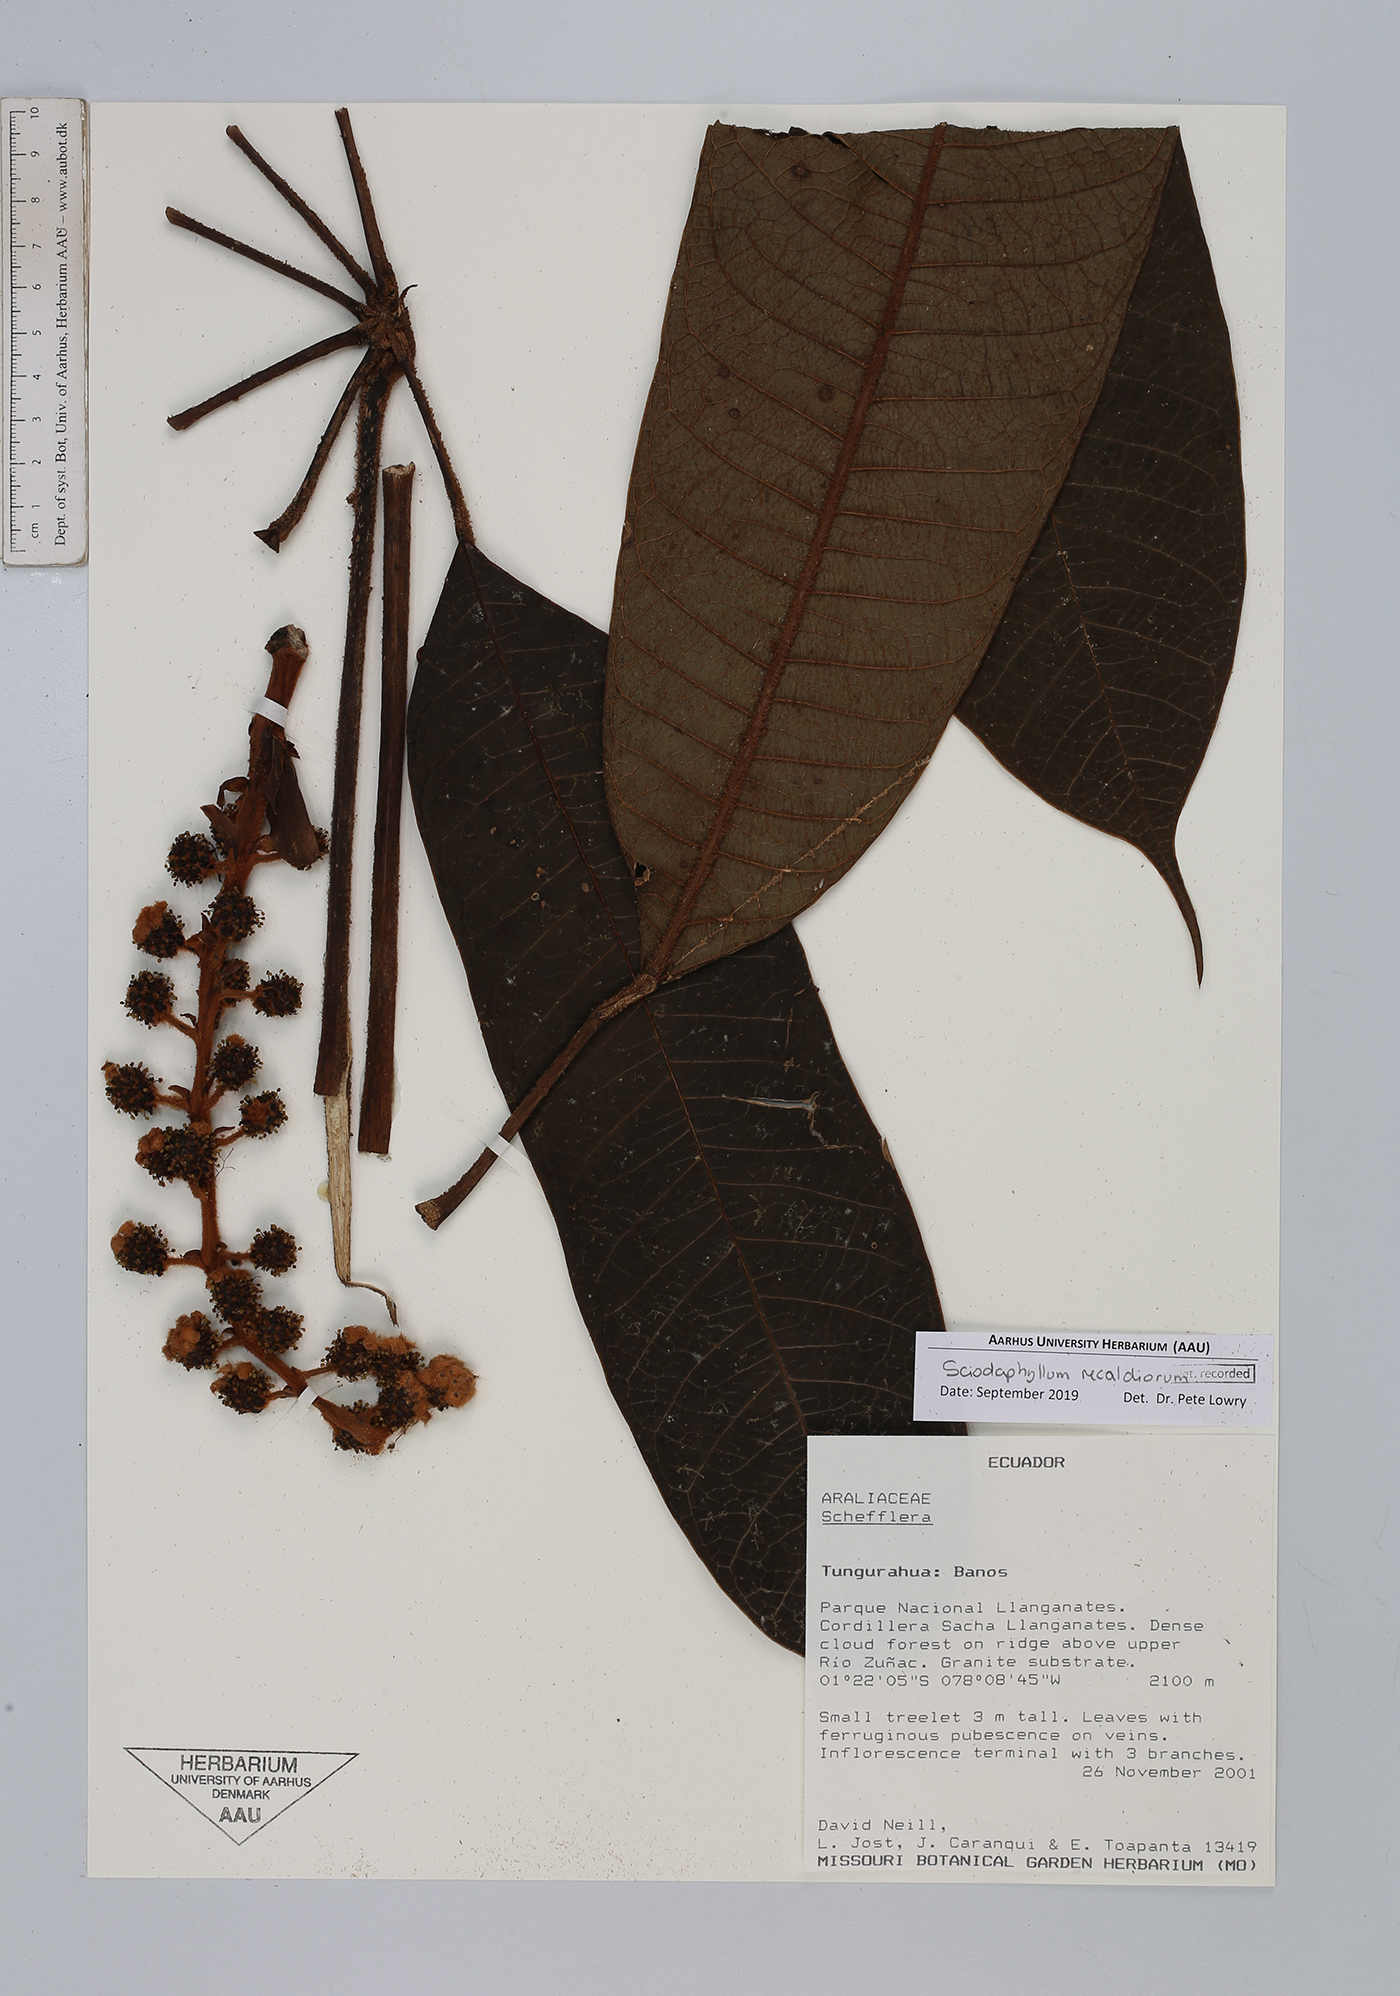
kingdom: Plantae
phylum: Tracheophyta
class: Magnoliopsida
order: Apiales
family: Araliaceae
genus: Sciodaphyllum
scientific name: Sciodaphyllum recaldeorum
